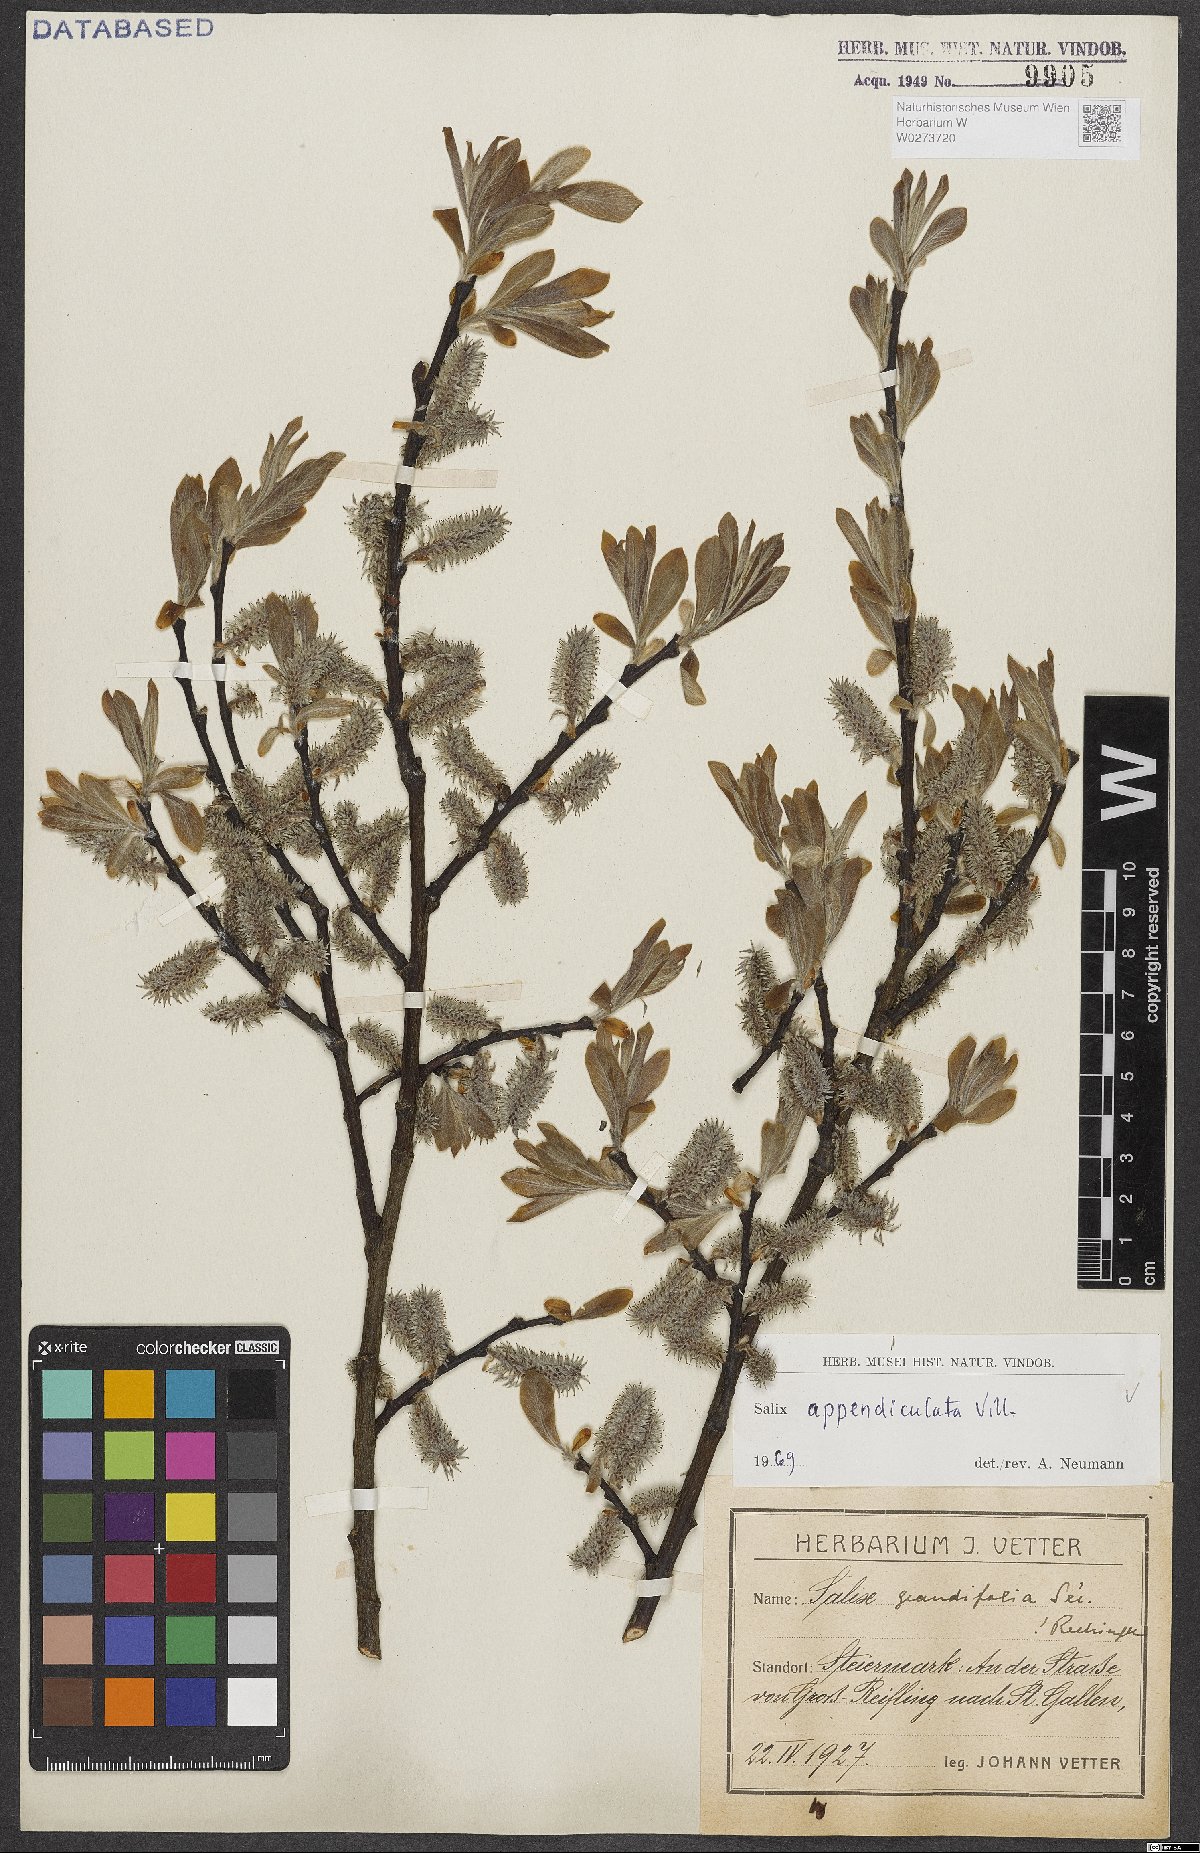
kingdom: Plantae
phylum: Tracheophyta
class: Magnoliopsida
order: Malpighiales
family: Salicaceae
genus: Salix
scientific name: Salix appendiculata
